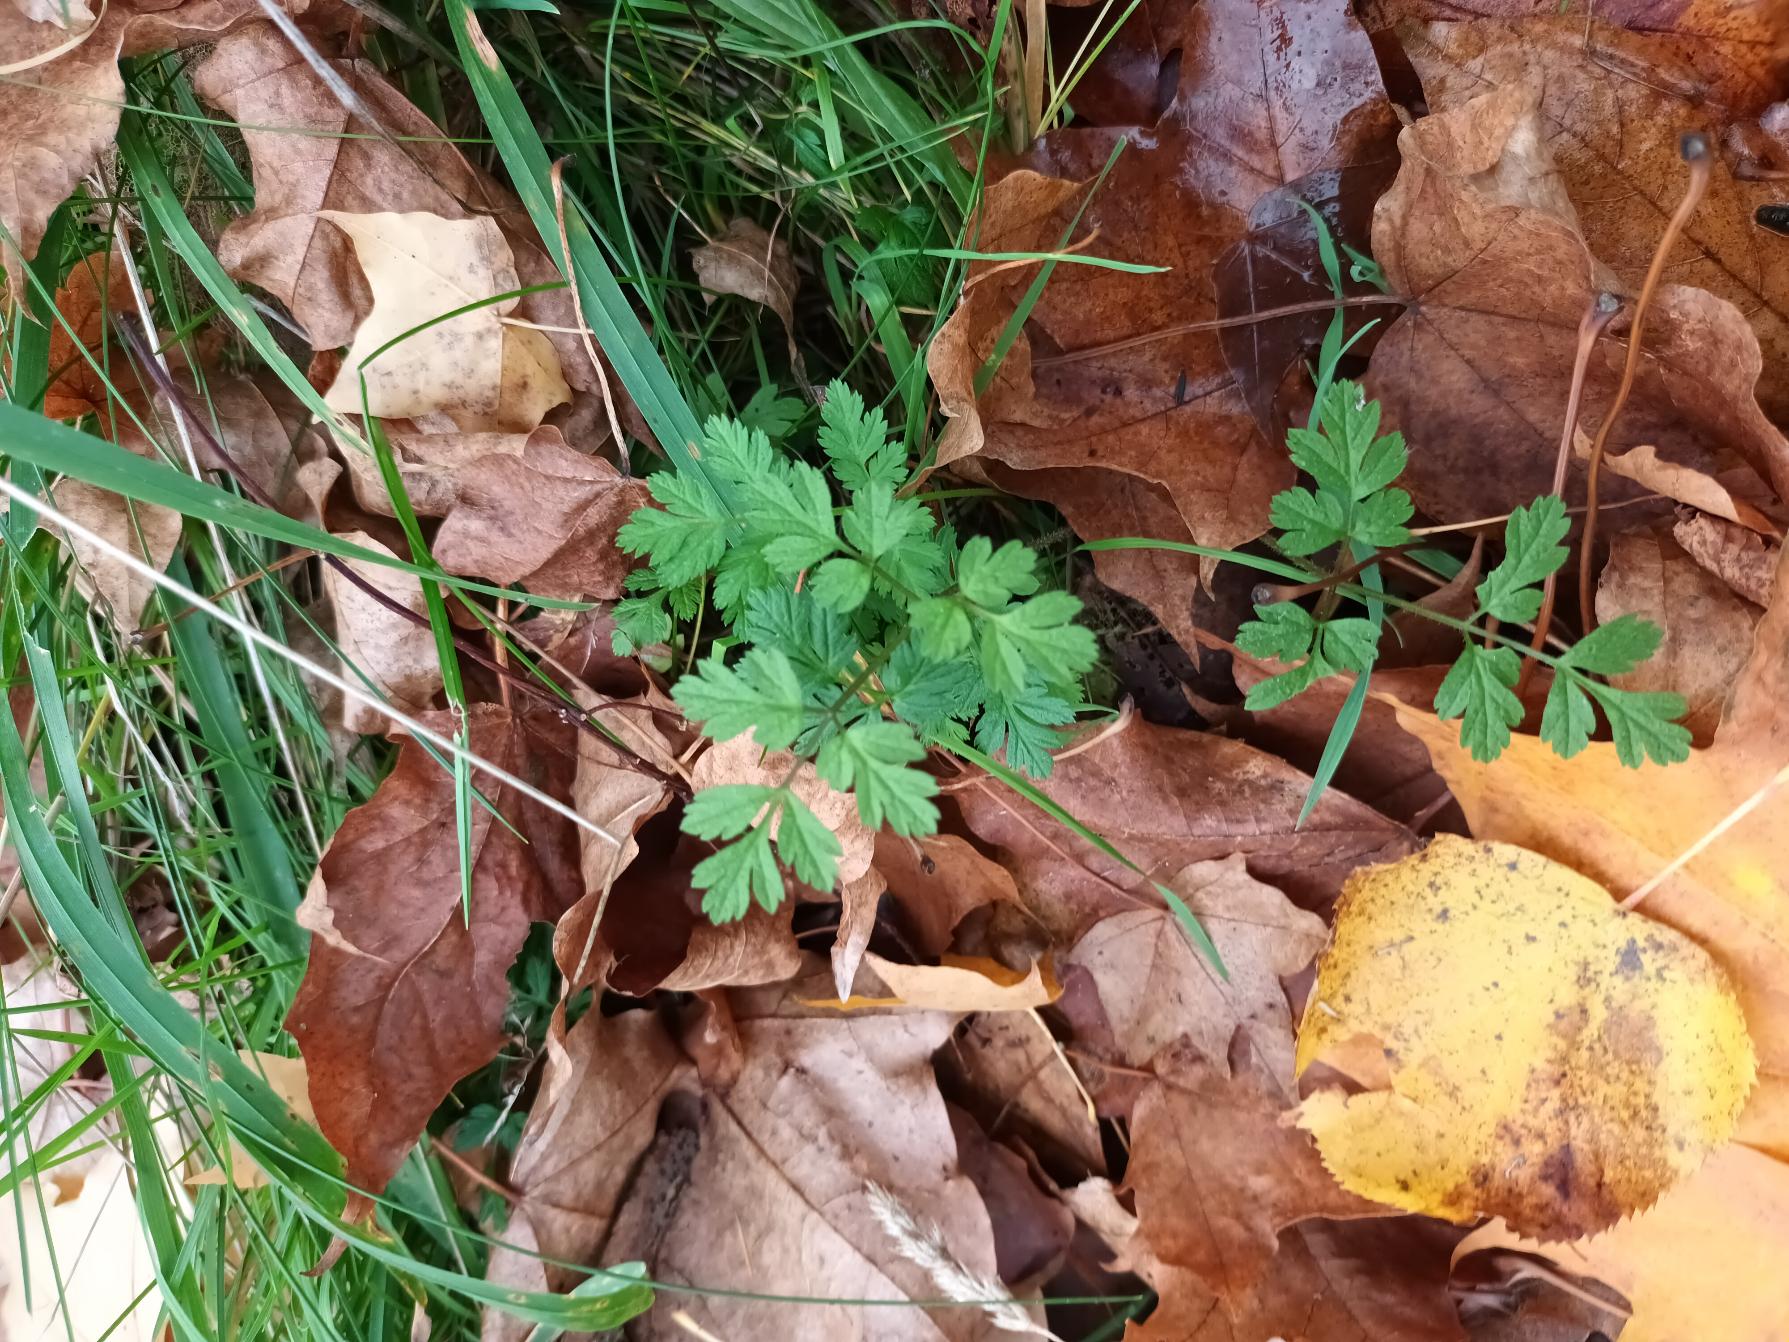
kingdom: Plantae
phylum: Tracheophyta
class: Magnoliopsida
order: Apiales
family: Apiaceae
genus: Chaerophyllum
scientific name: Chaerophyllum temulum
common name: Almindelig hulsvøb
